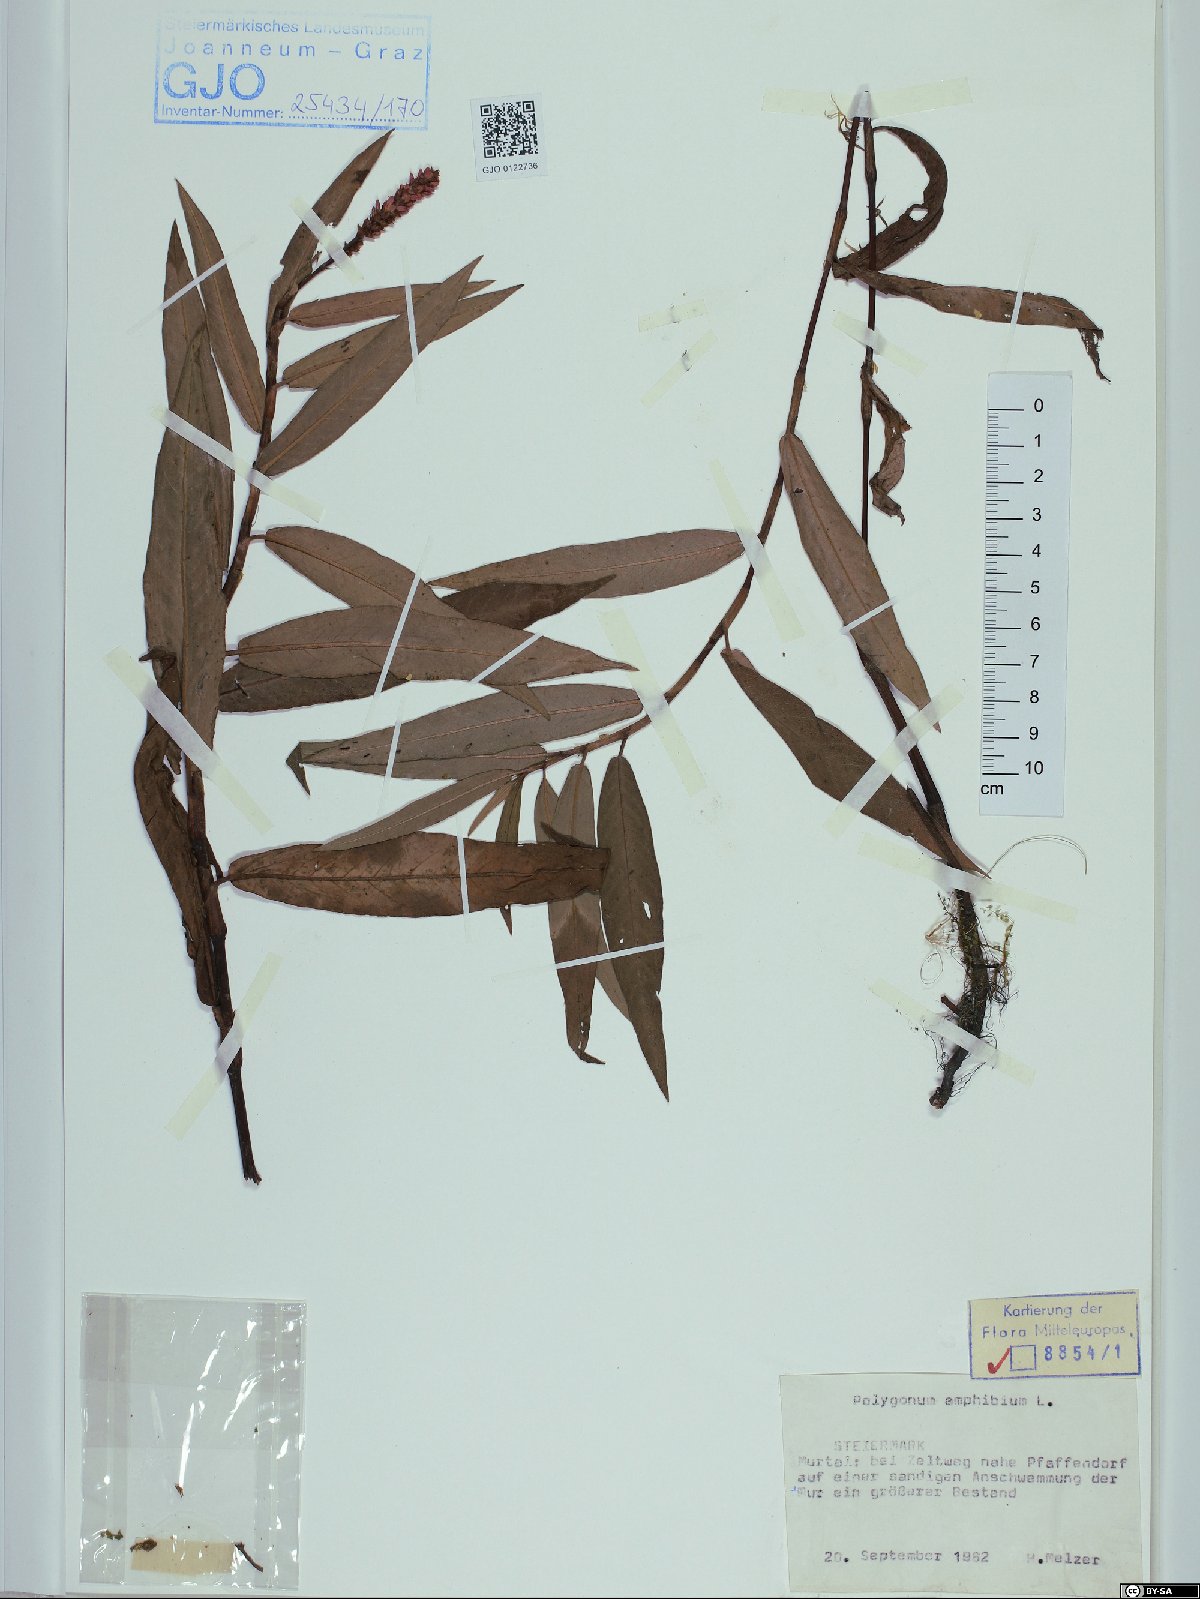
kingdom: Plantae
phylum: Tracheophyta
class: Magnoliopsida
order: Caryophyllales
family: Polygonaceae
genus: Persicaria
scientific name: Persicaria amphibia
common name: Amphibious bistort
